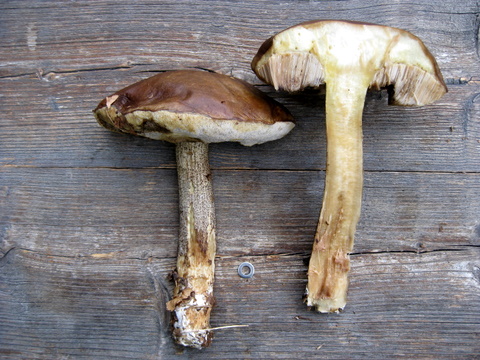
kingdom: Fungi
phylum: Basidiomycota
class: Agaricomycetes
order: Boletales
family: Boletaceae
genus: Leccinum
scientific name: Leccinum cyaneobasileucum
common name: almindelig skælrørhat
